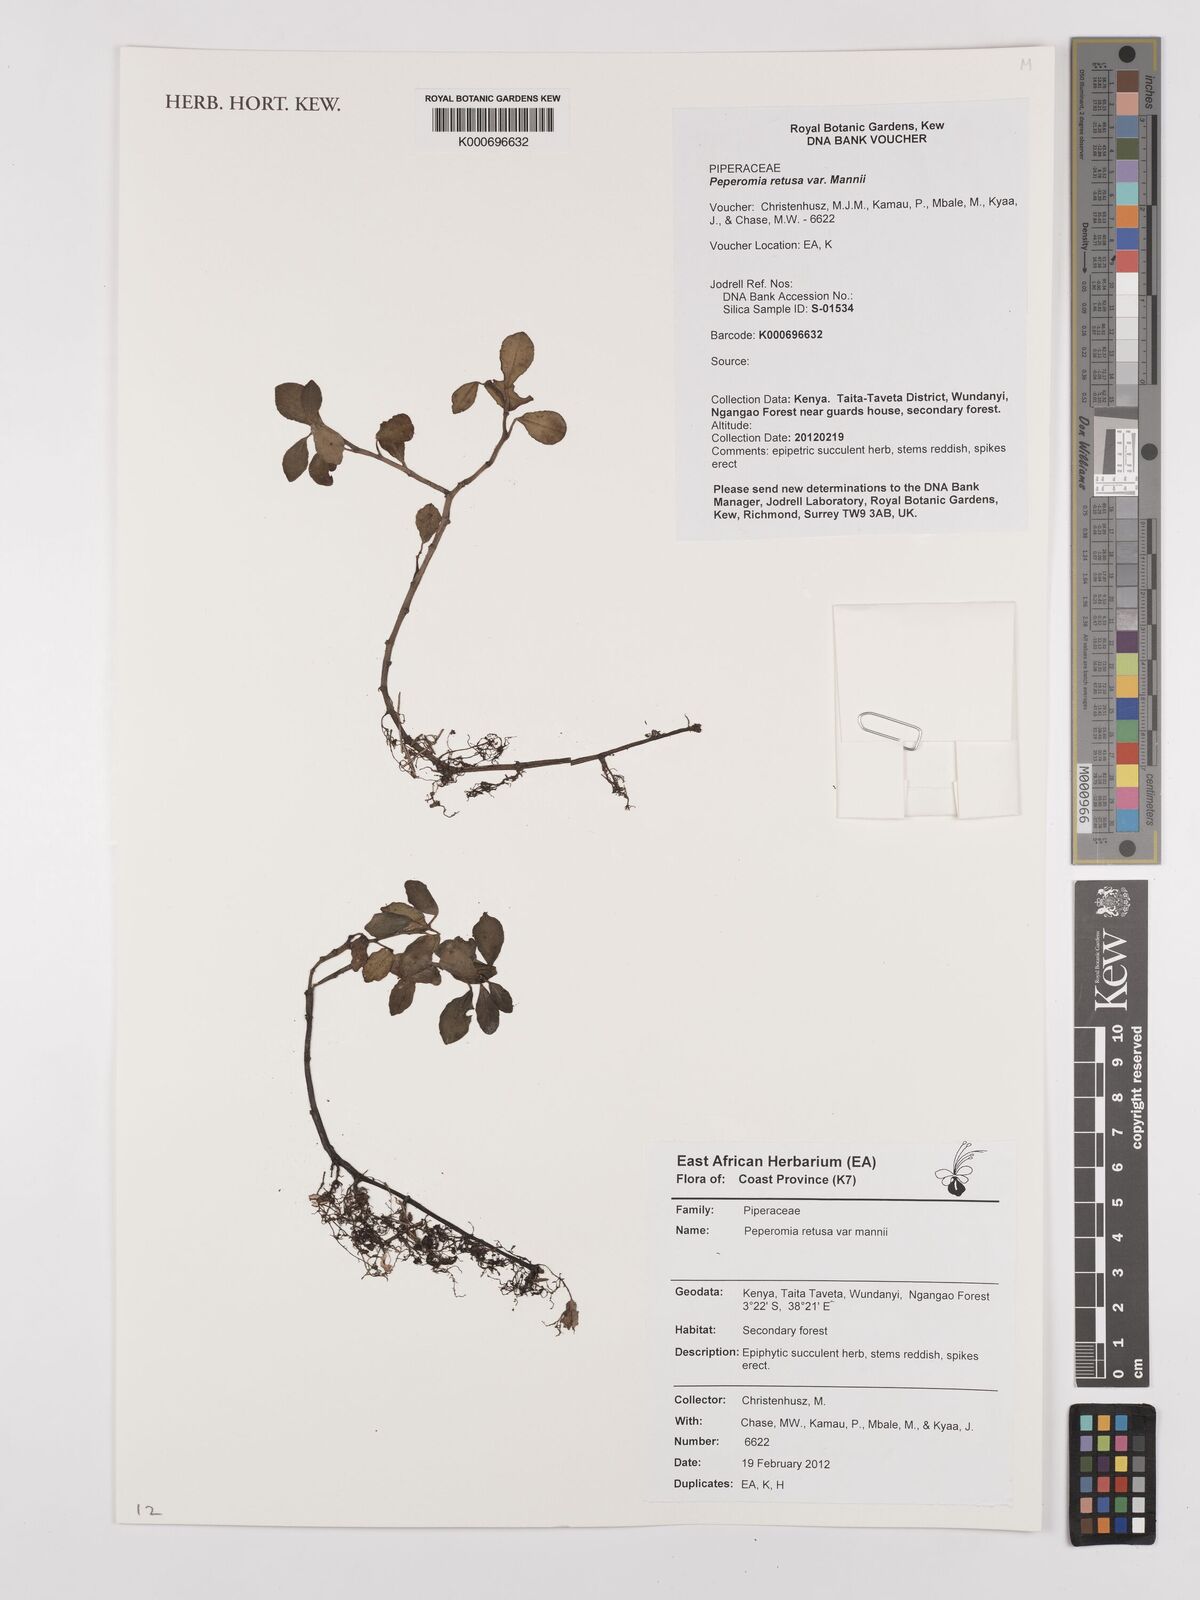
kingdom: Plantae
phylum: Tracheophyta
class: Magnoliopsida
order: Piperales
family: Piperaceae
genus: Peperomia
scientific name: Peperomia retusa
